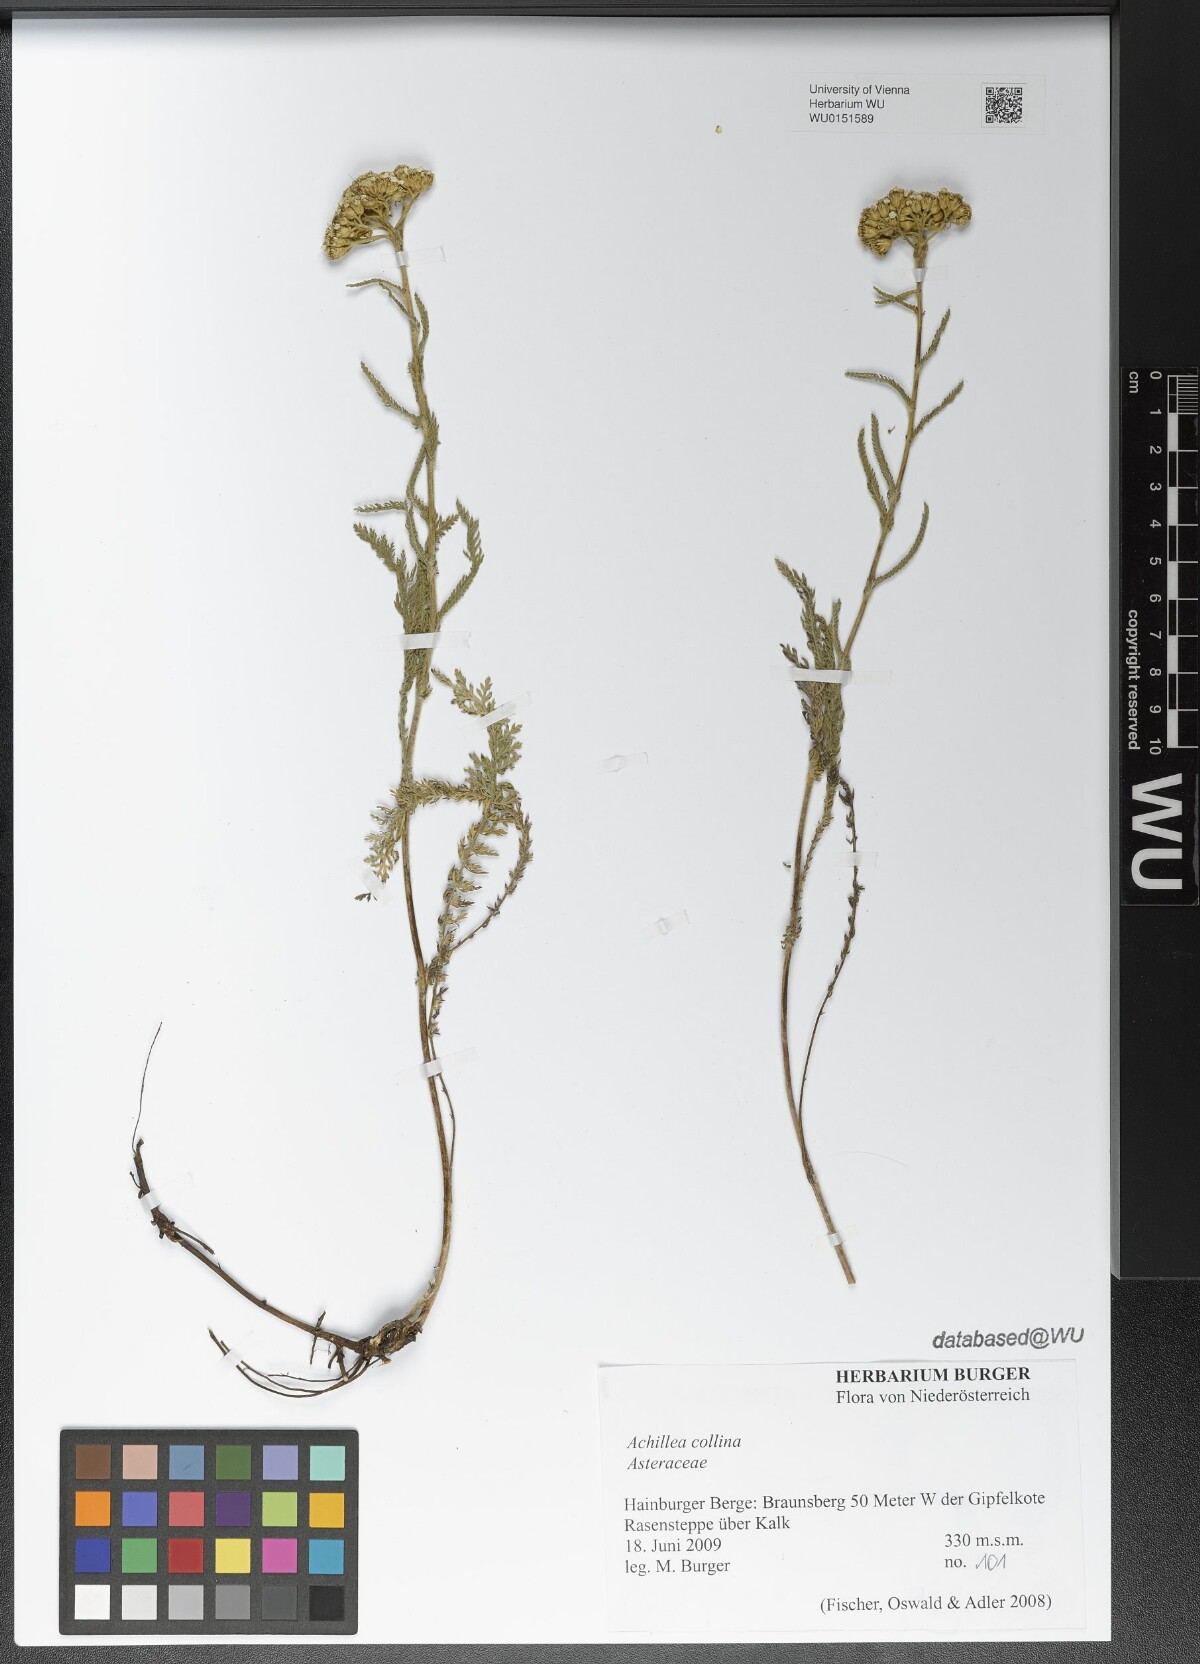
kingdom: Plantae
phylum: Tracheophyta
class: Magnoliopsida
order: Asterales
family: Asteraceae
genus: Achillea
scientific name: Achillea collina
